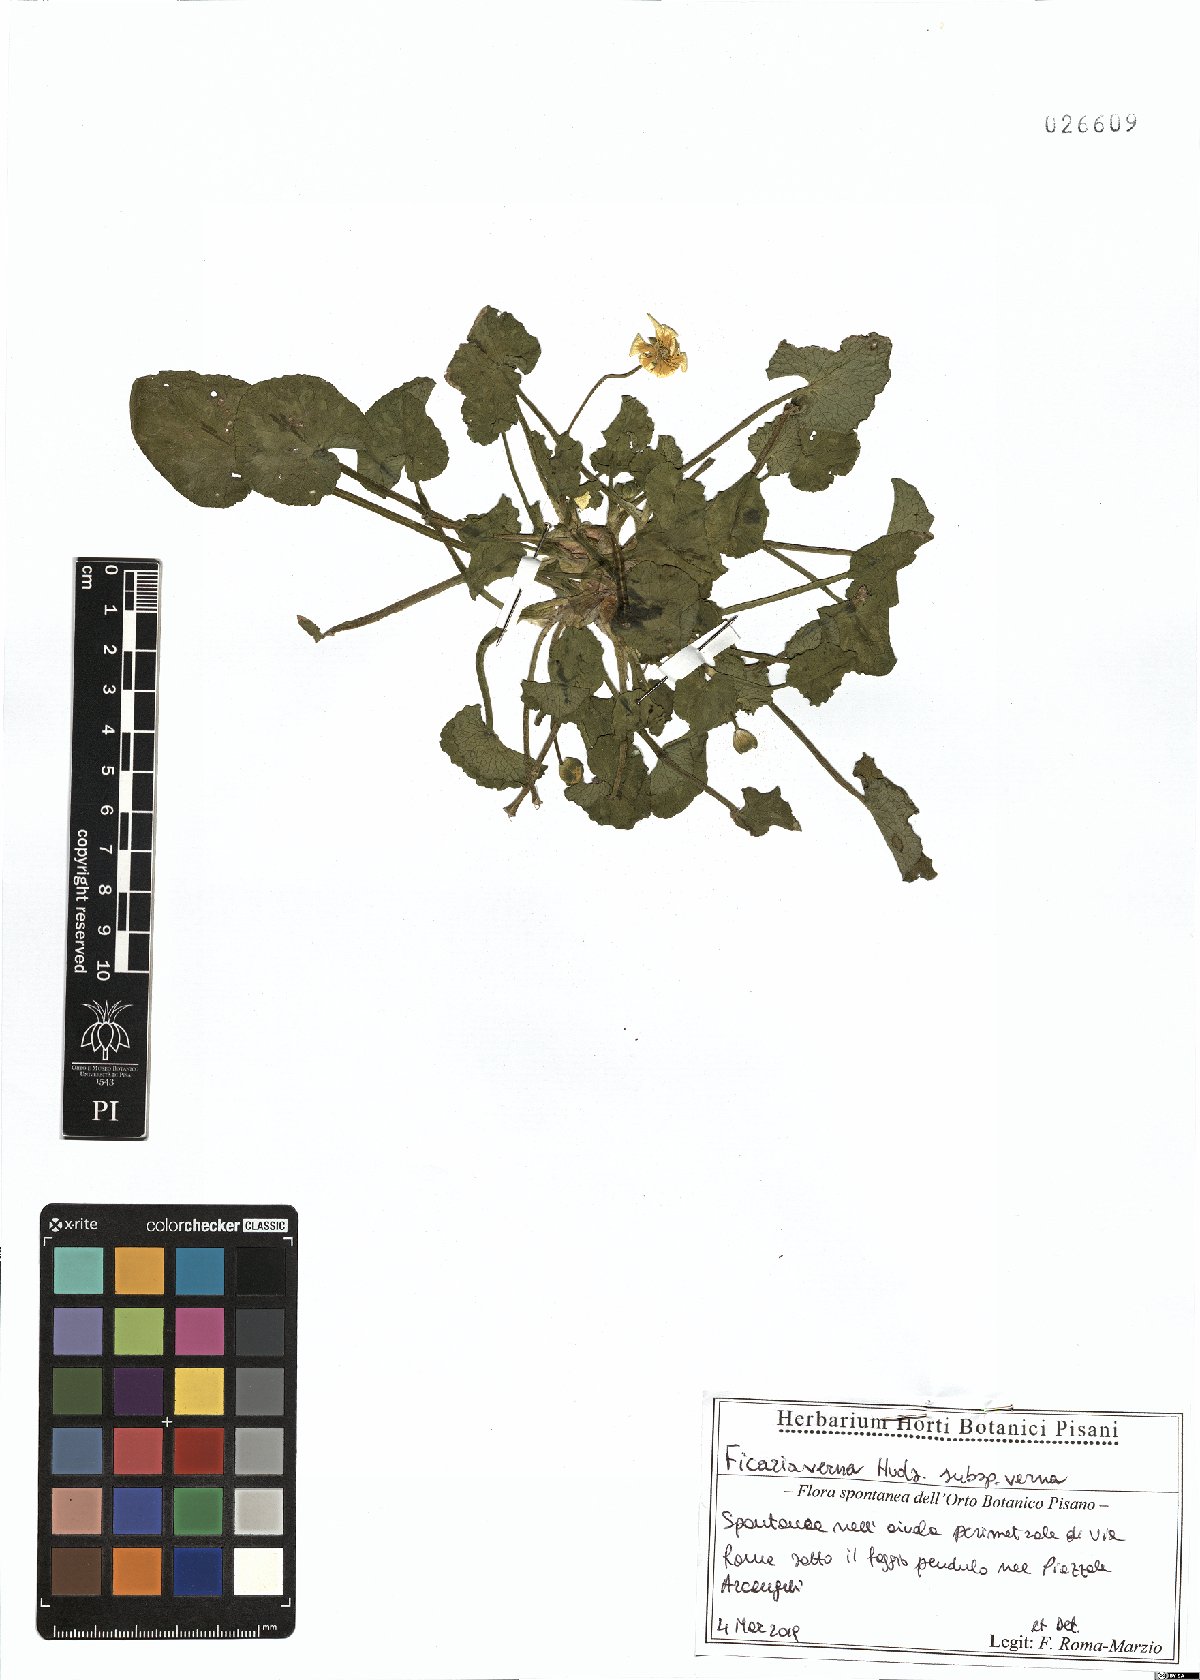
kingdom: Plantae
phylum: Tracheophyta
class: Magnoliopsida
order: Ranunculales
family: Ranunculaceae
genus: Ficaria
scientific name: Ficaria verna
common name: Lesser celandine
